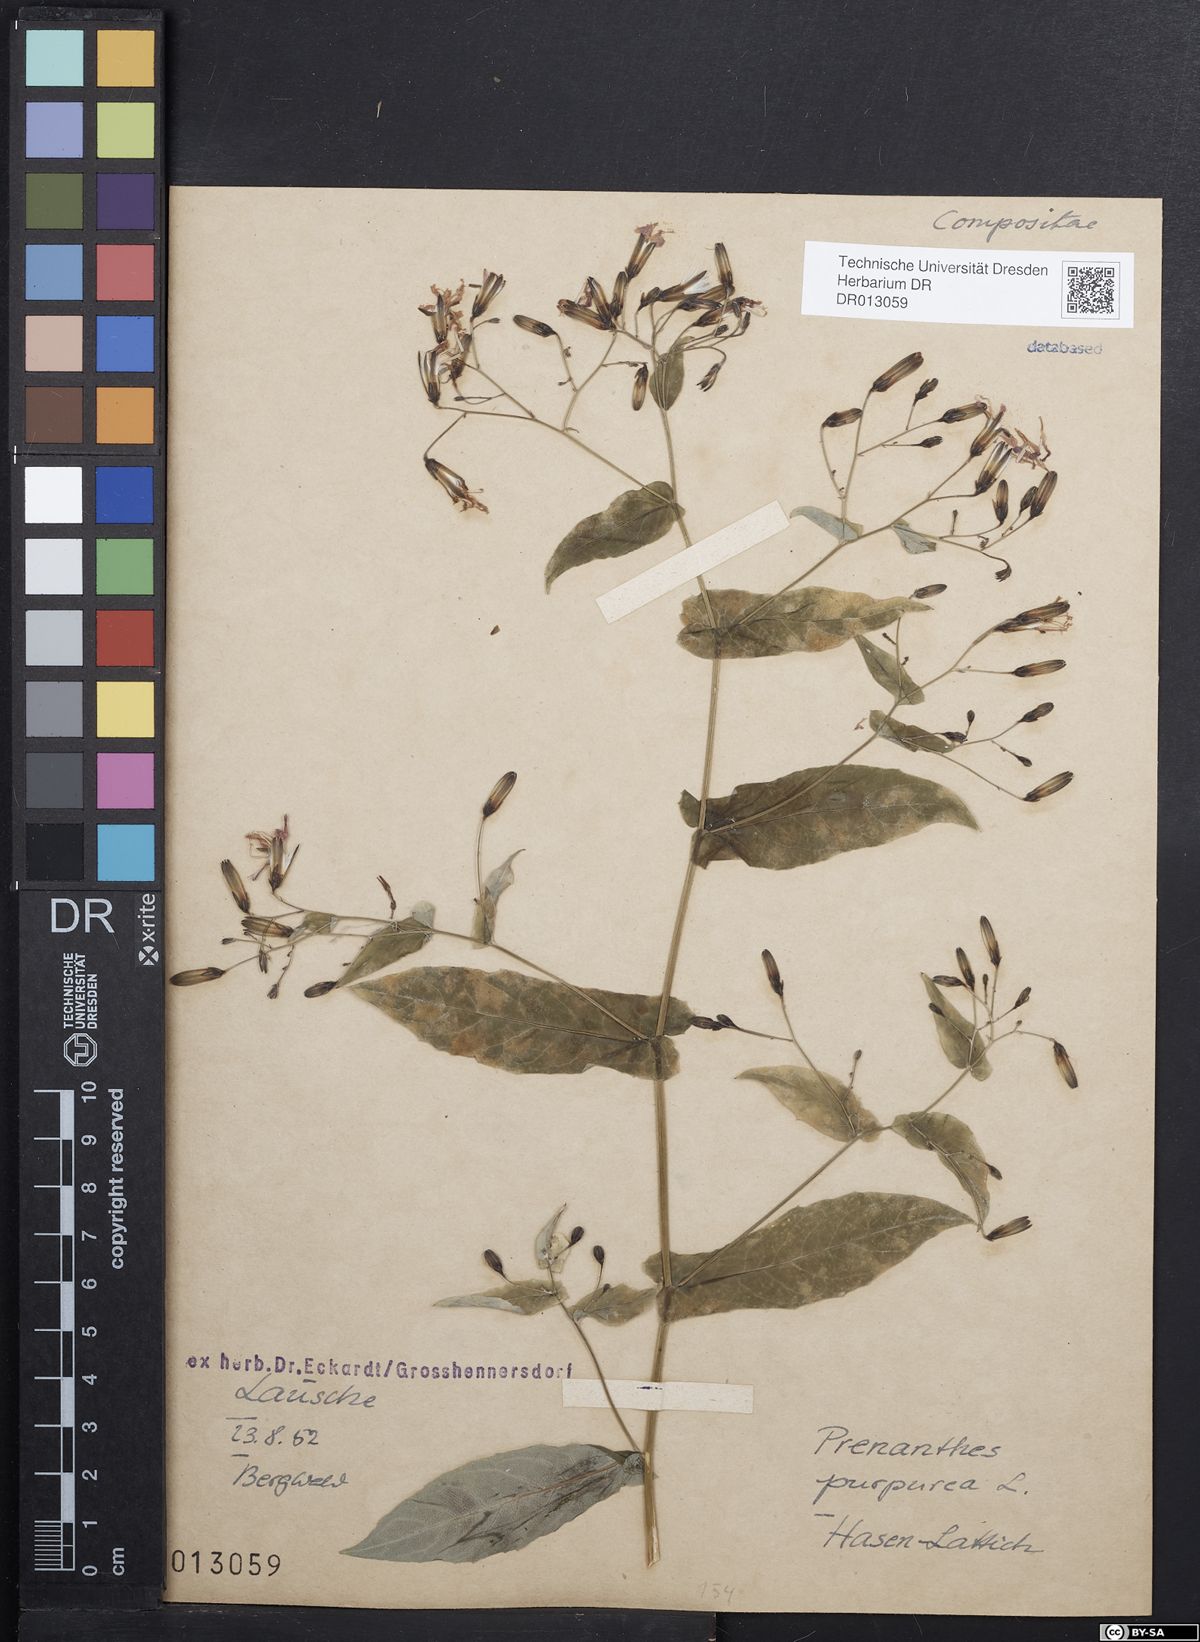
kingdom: Plantae
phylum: Tracheophyta
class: Magnoliopsida
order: Asterales
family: Asteraceae
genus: Prenanthes
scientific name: Prenanthes purpurea
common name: Purple lettuce
